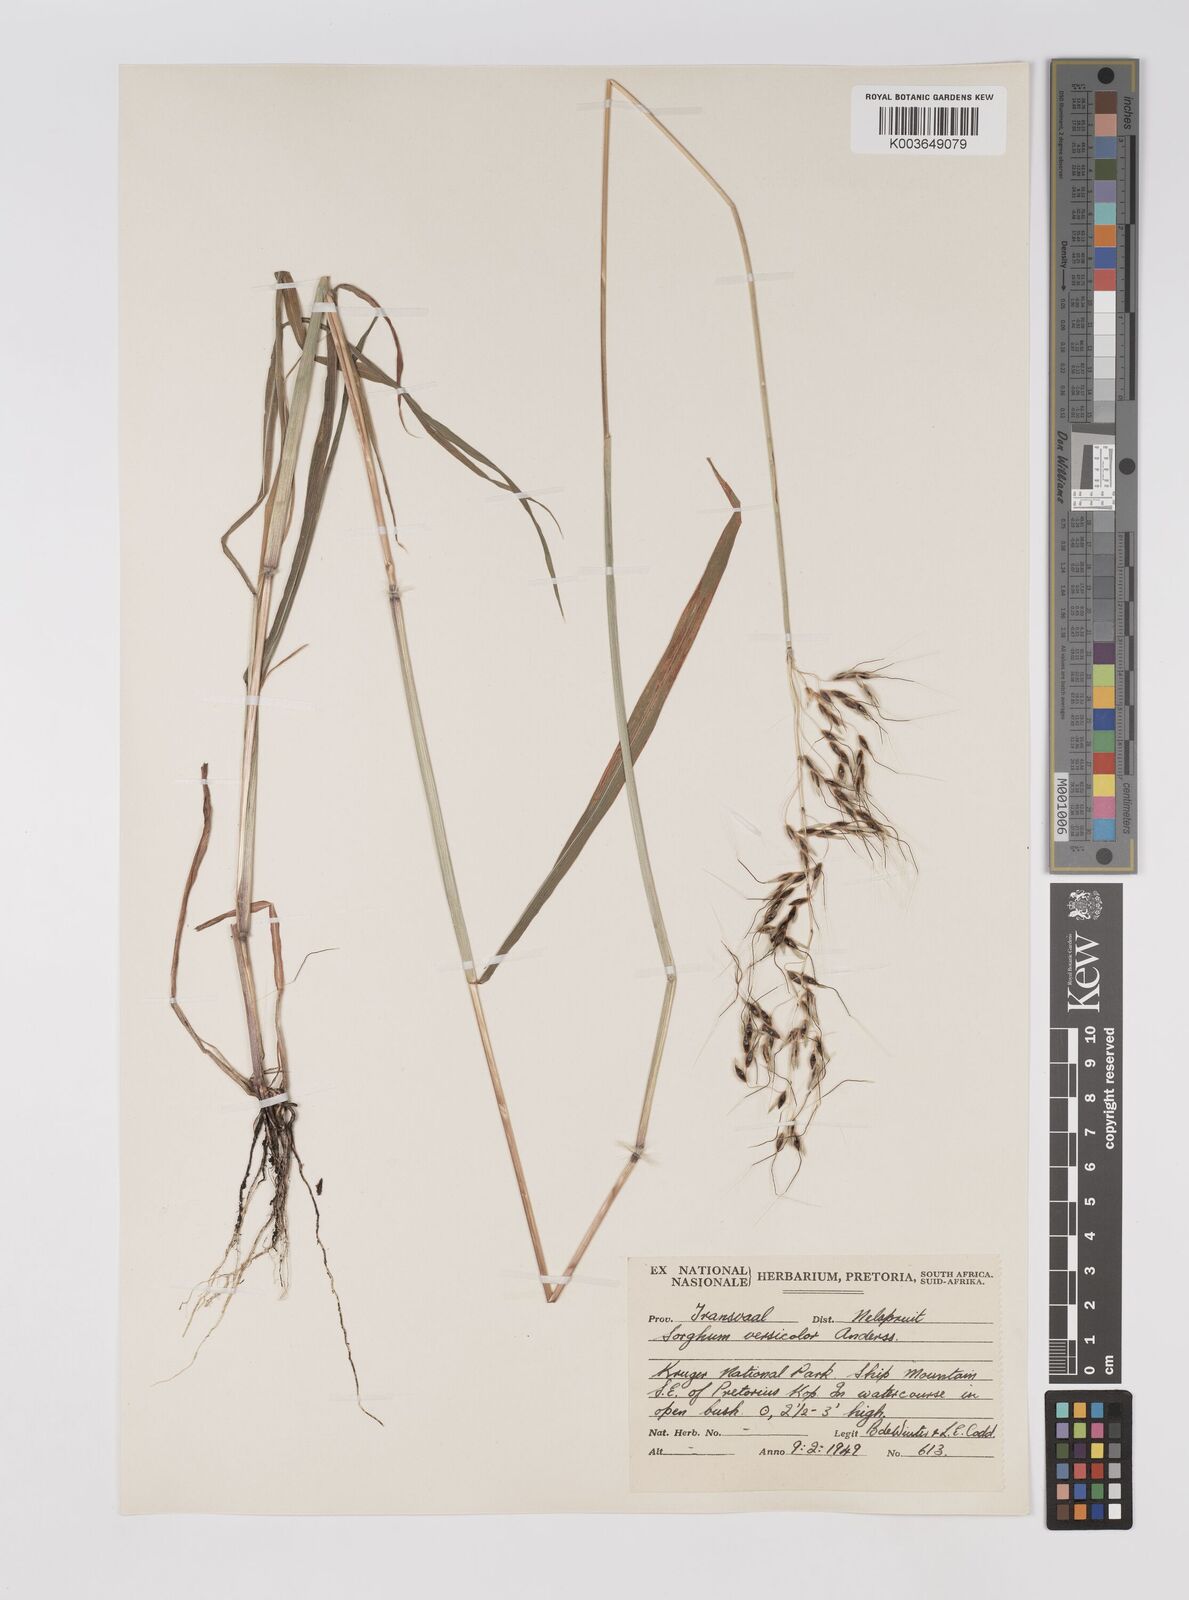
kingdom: Plantae
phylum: Tracheophyta
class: Liliopsida
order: Poales
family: Poaceae
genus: Sarga
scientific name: Sarga versicolor
